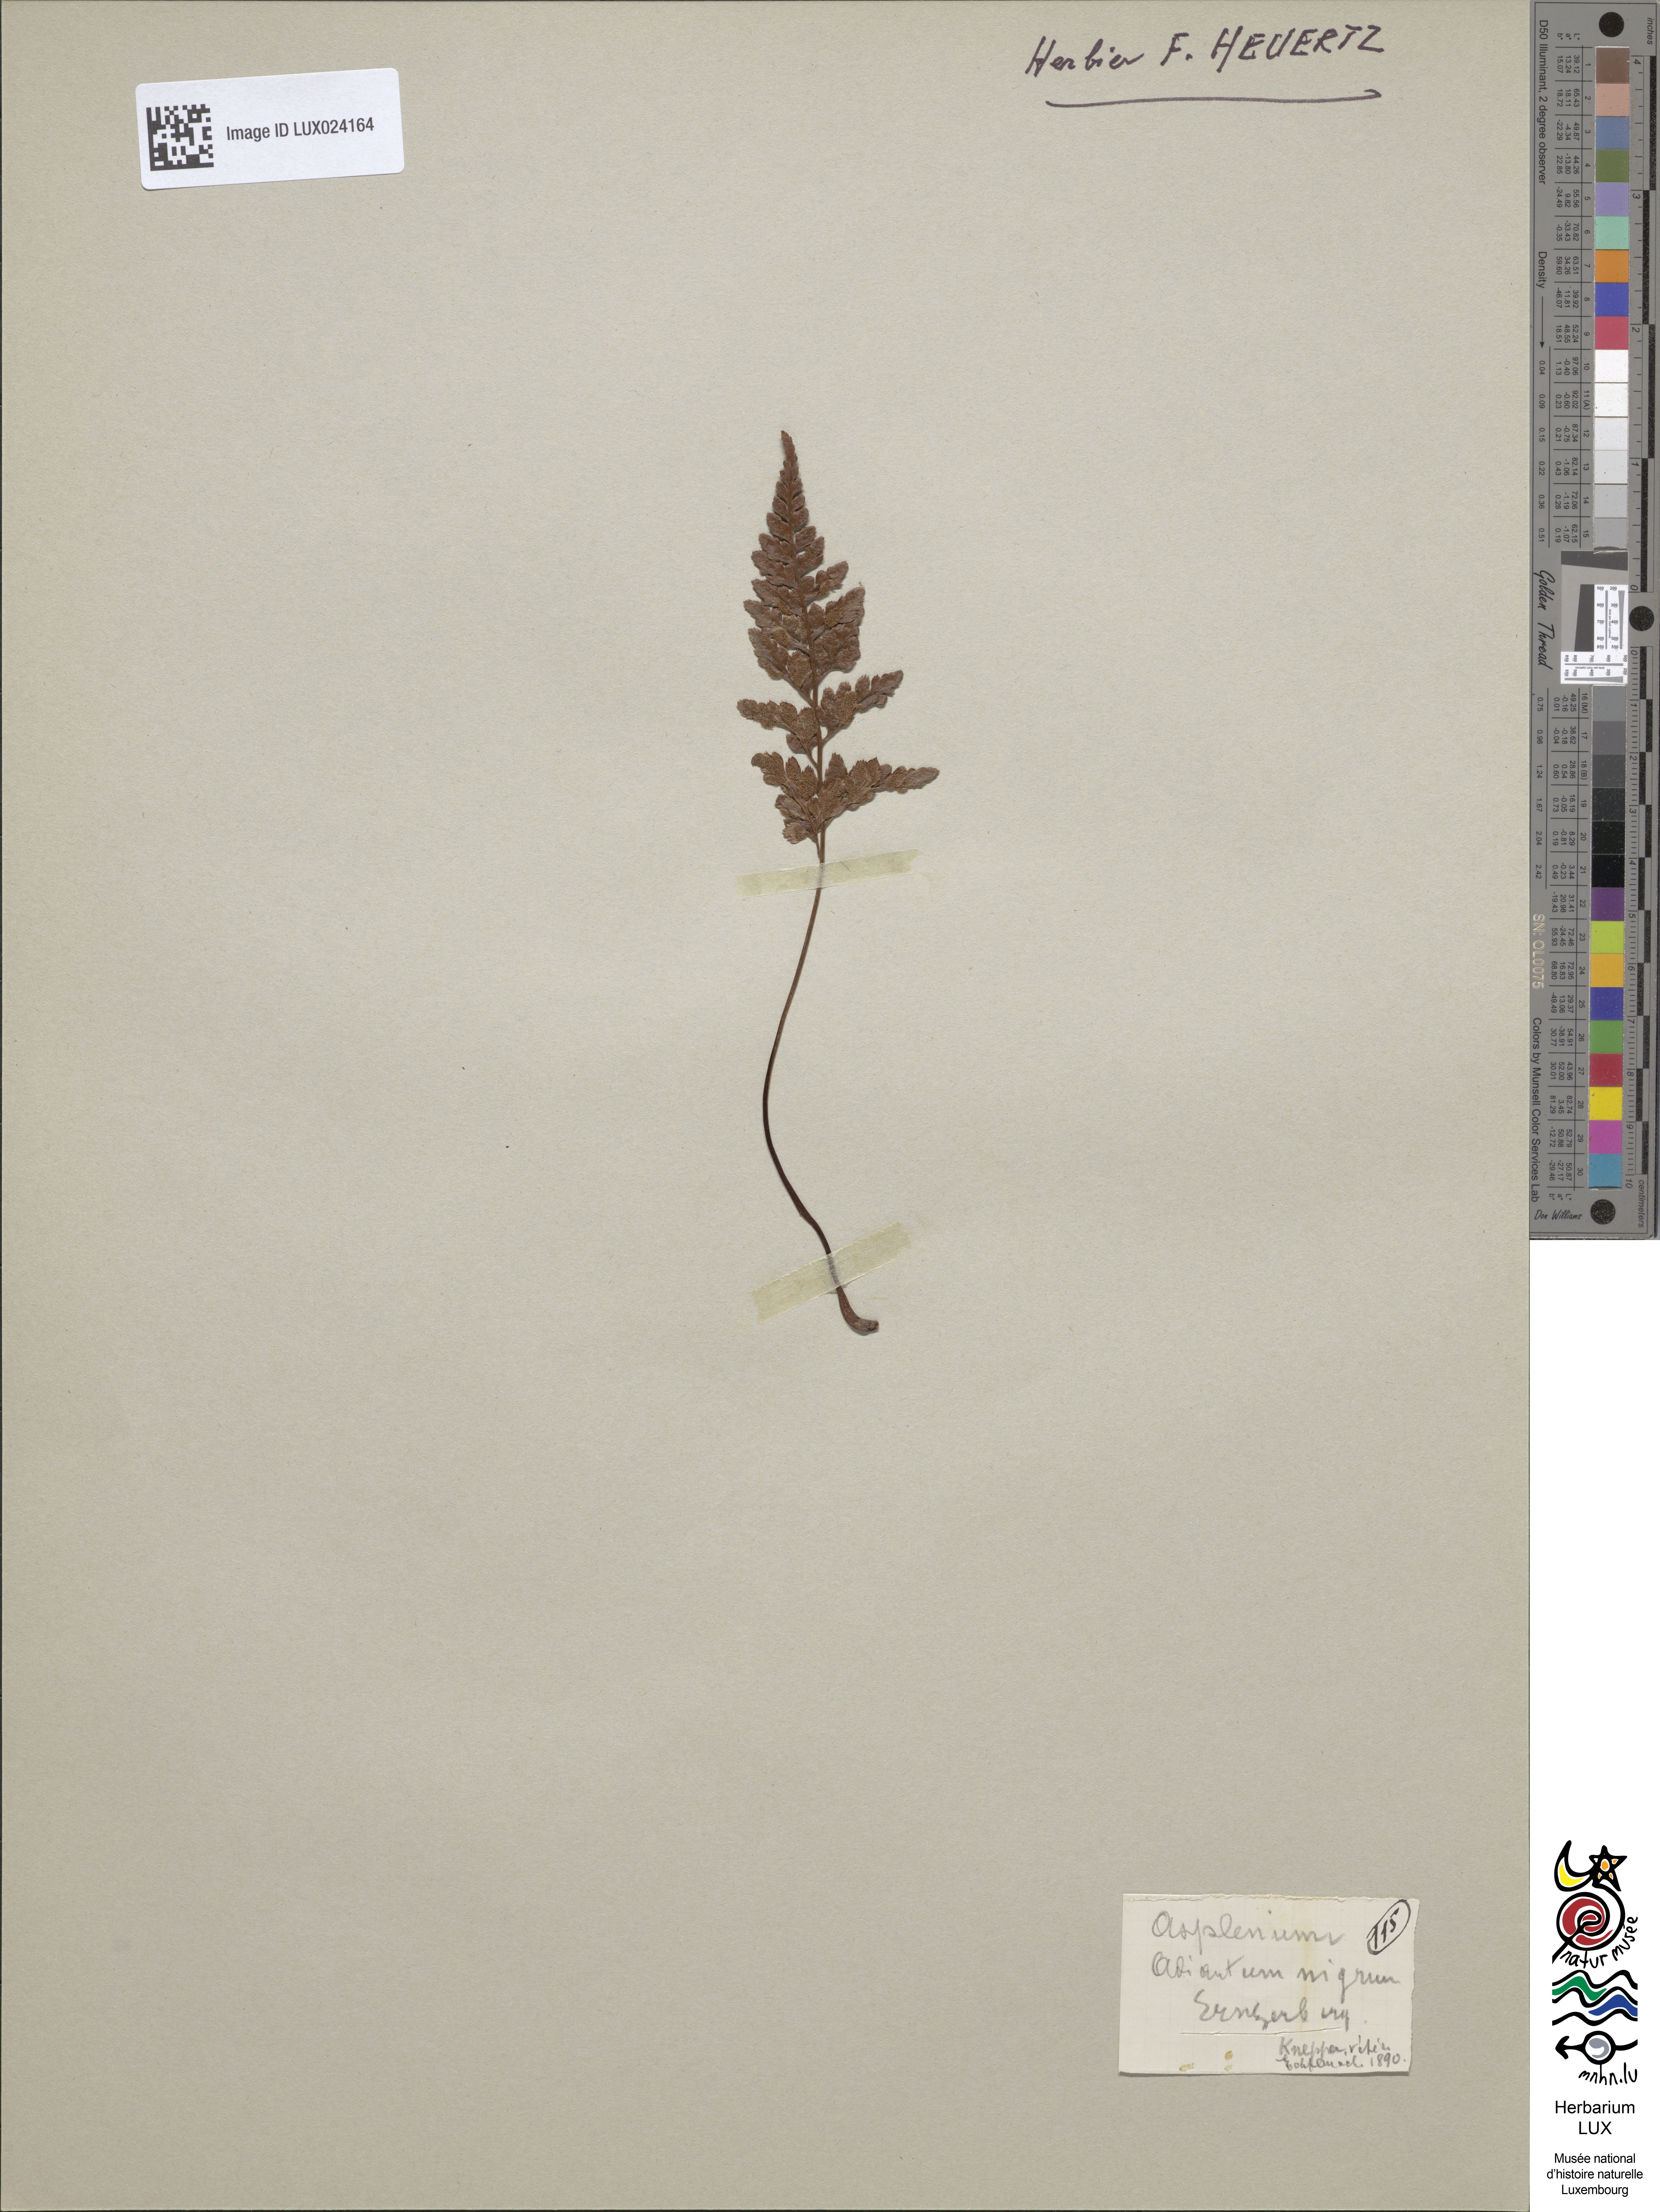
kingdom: Plantae
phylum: Tracheophyta
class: Polypodiopsida
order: Polypodiales
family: Aspleniaceae
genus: Asplenium
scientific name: Asplenium adiantum-nigrum
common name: Black spleenwort
